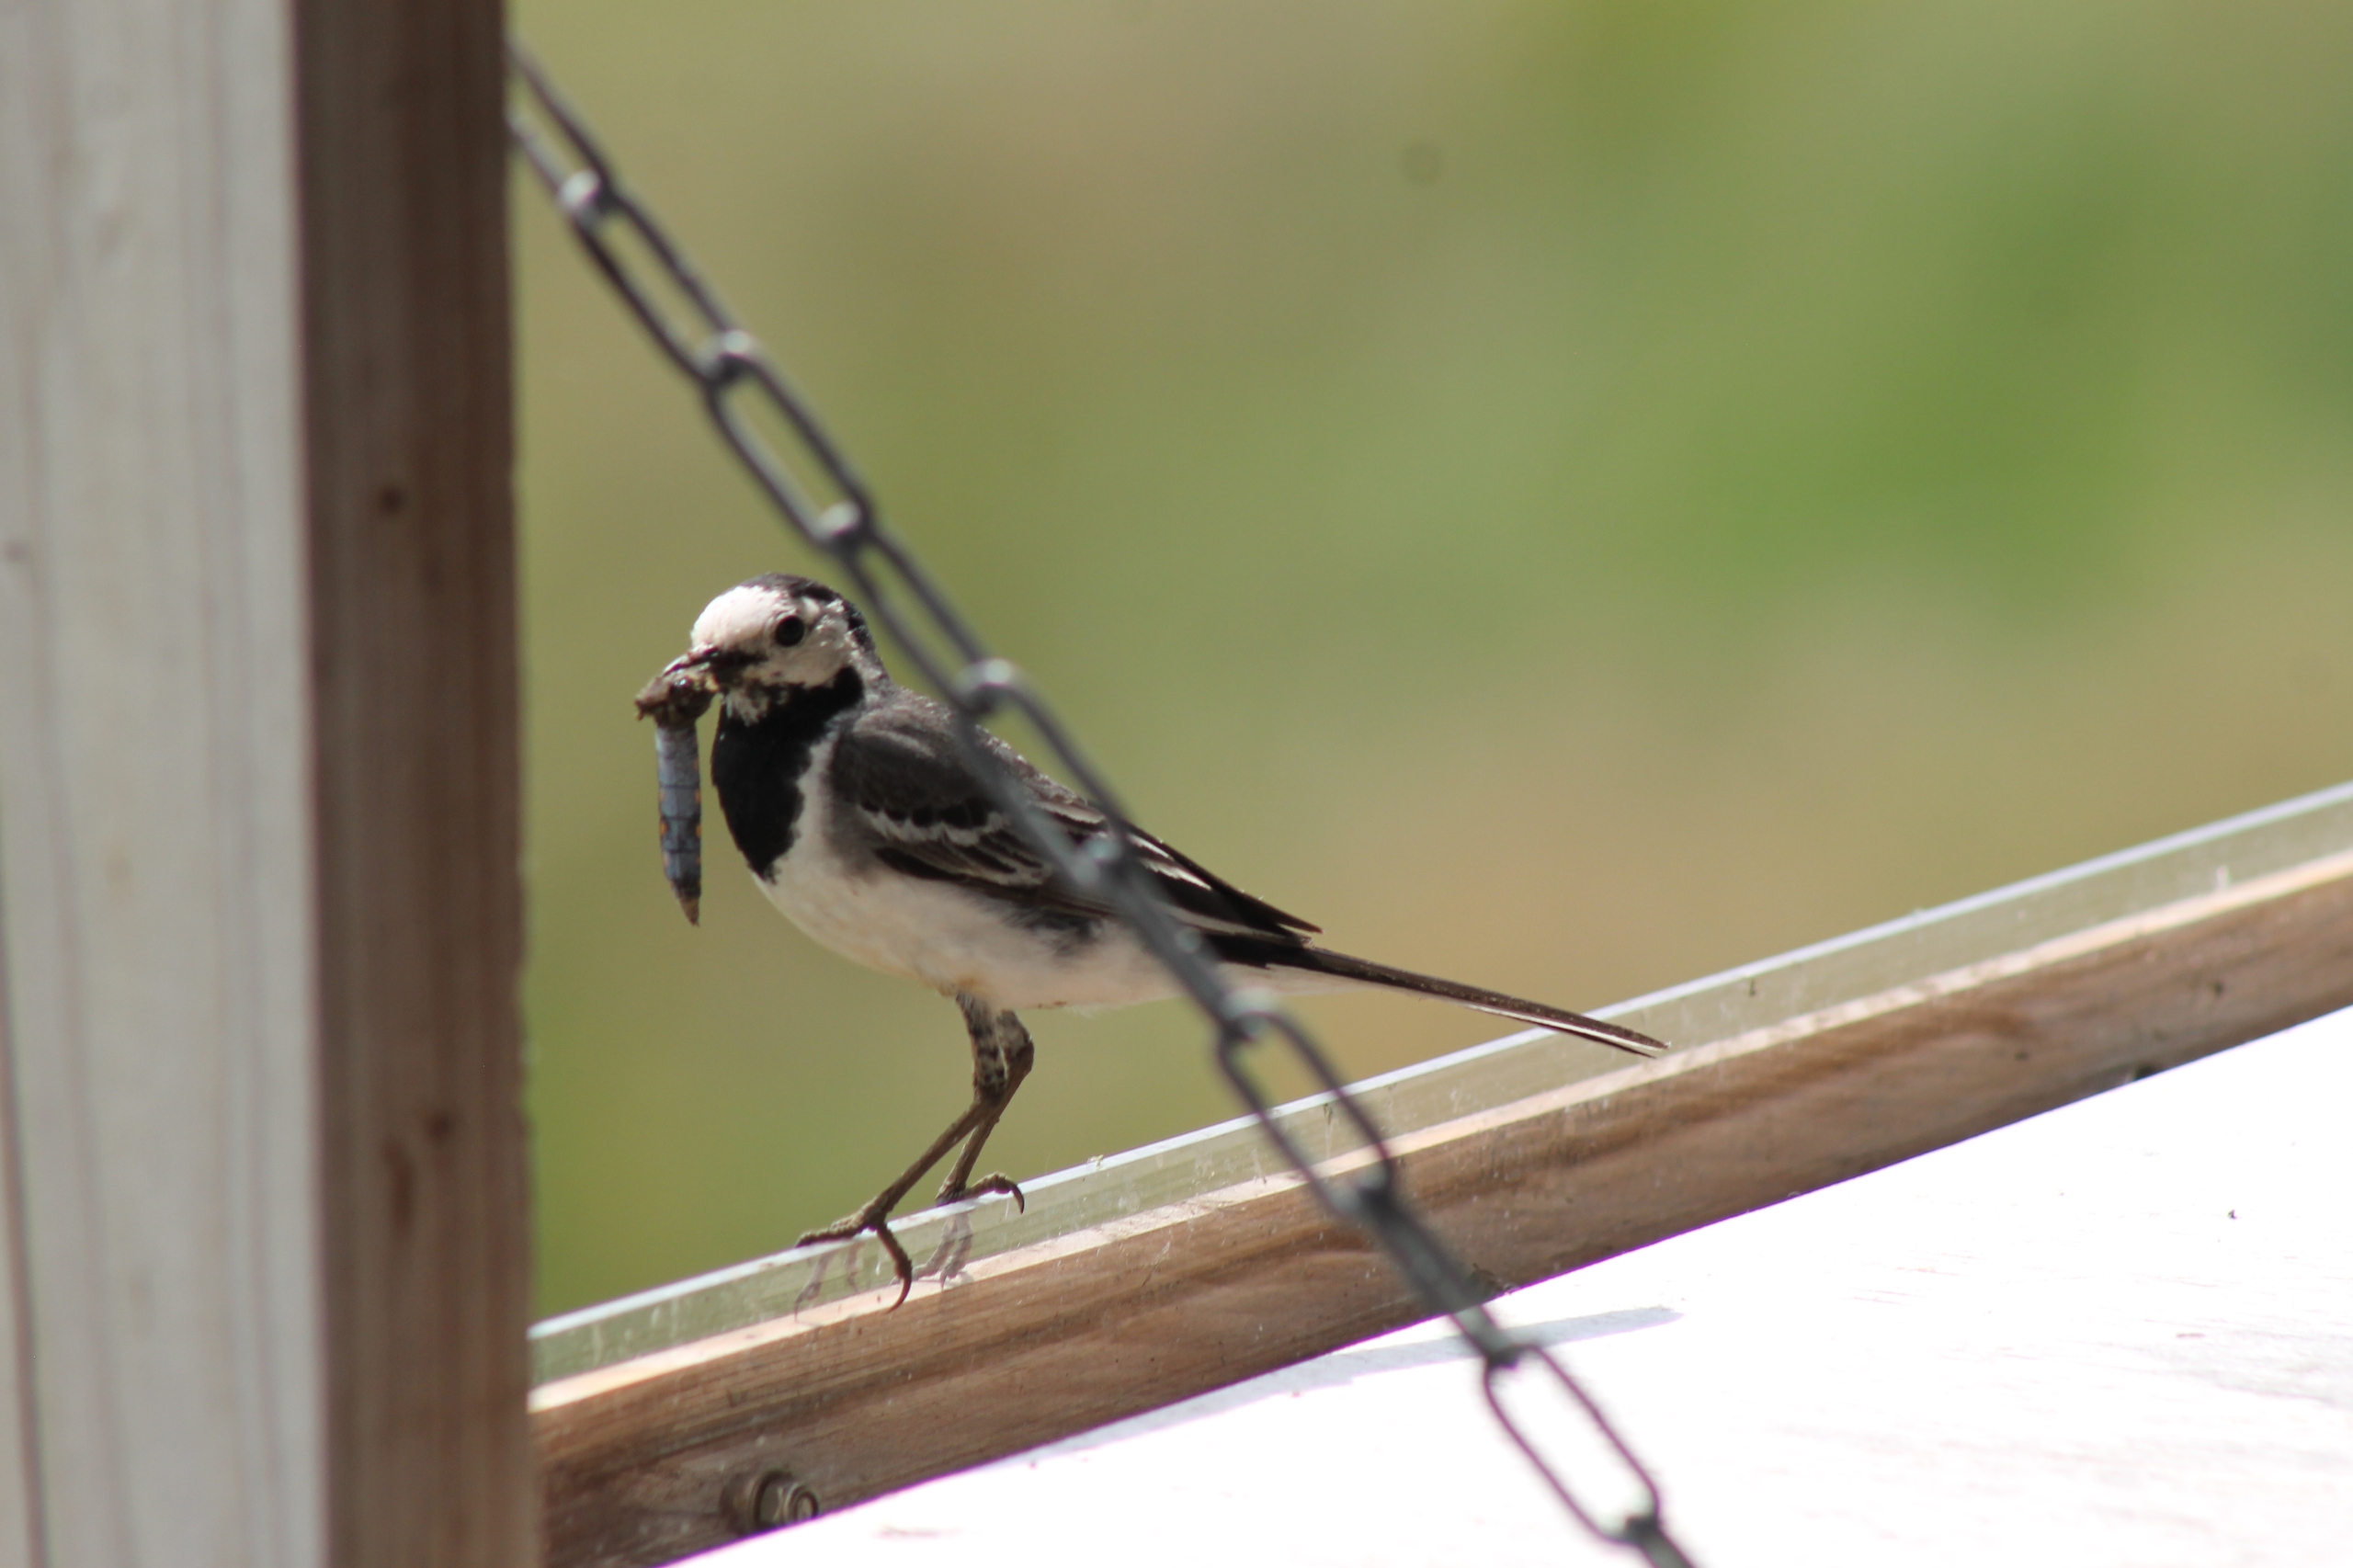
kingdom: Animalia
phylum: Chordata
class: Aves
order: Passeriformes
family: Motacillidae
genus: Motacilla
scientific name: Motacilla alba
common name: Hvid vipstjert
